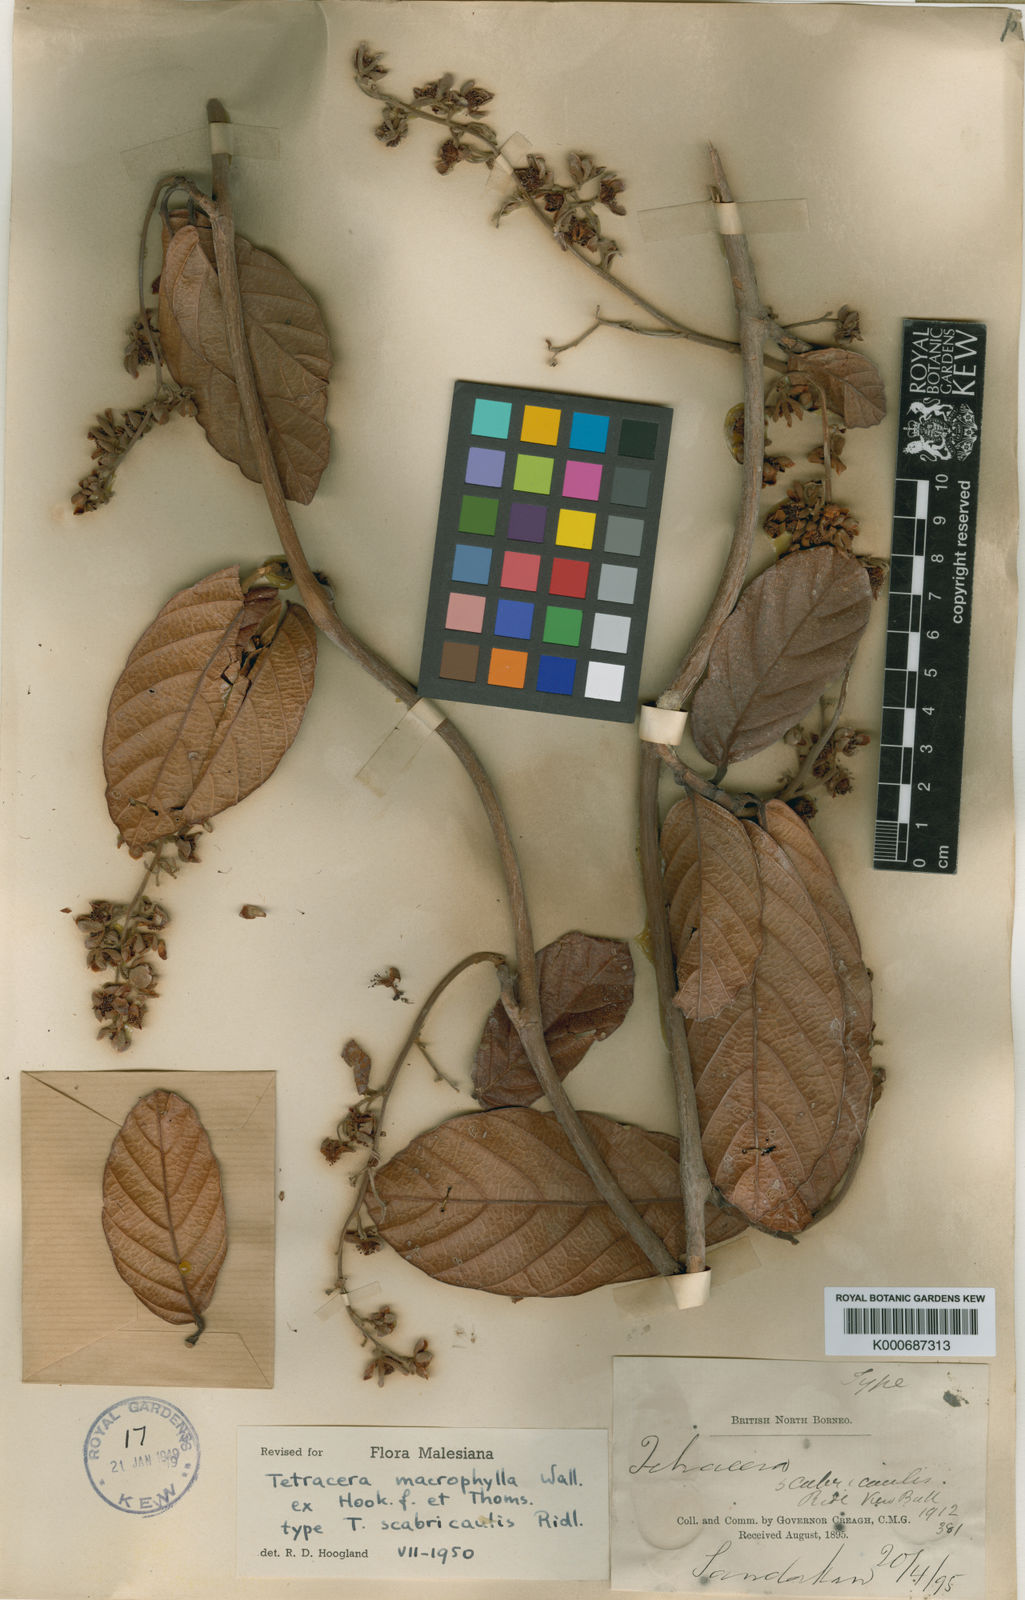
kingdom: Plantae
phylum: Tracheophyta
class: Magnoliopsida
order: Dilleniales
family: Dilleniaceae
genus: Tetracera
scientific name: Tetracera macrophylla
